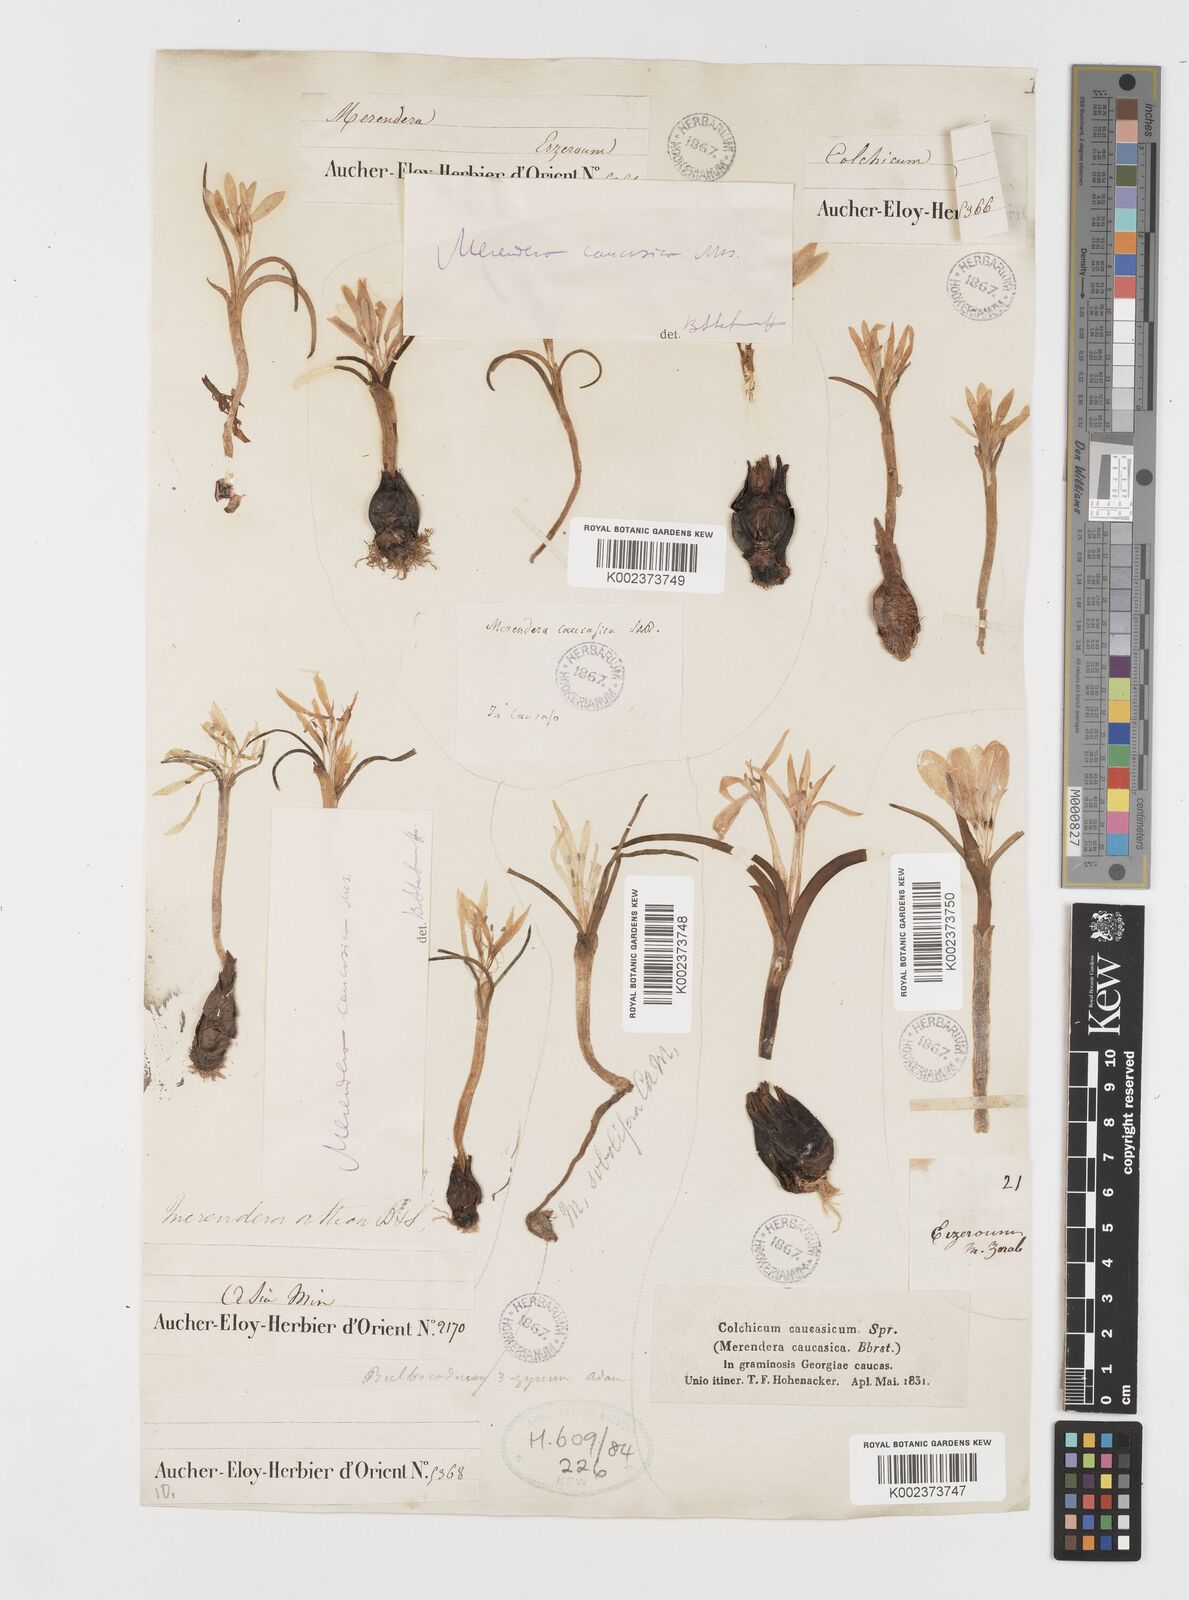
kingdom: Plantae
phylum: Tracheophyta
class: Liliopsida
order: Liliales
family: Colchicaceae
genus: Colchicum
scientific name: Colchicum atticum
